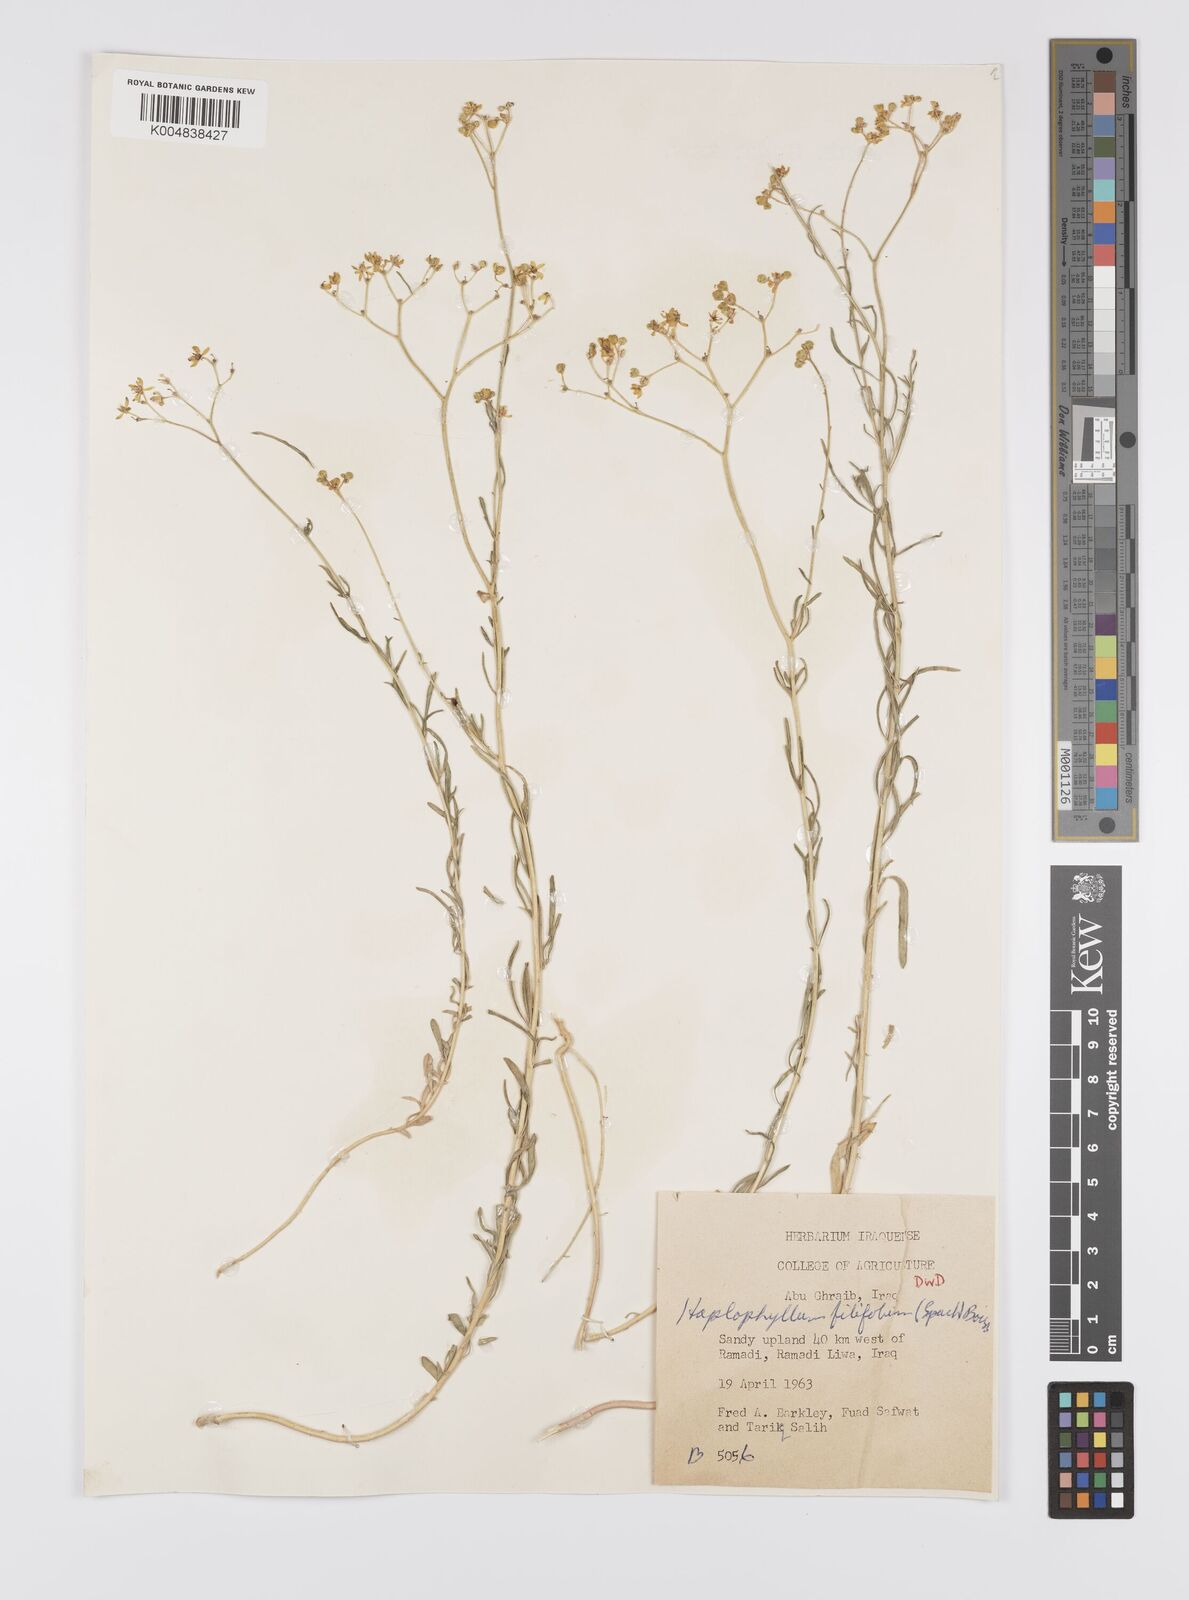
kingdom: Plantae
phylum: Tracheophyta
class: Magnoliopsida
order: Sapindales
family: Rutaceae
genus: Haplophyllum
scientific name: Haplophyllum tuberculatum
